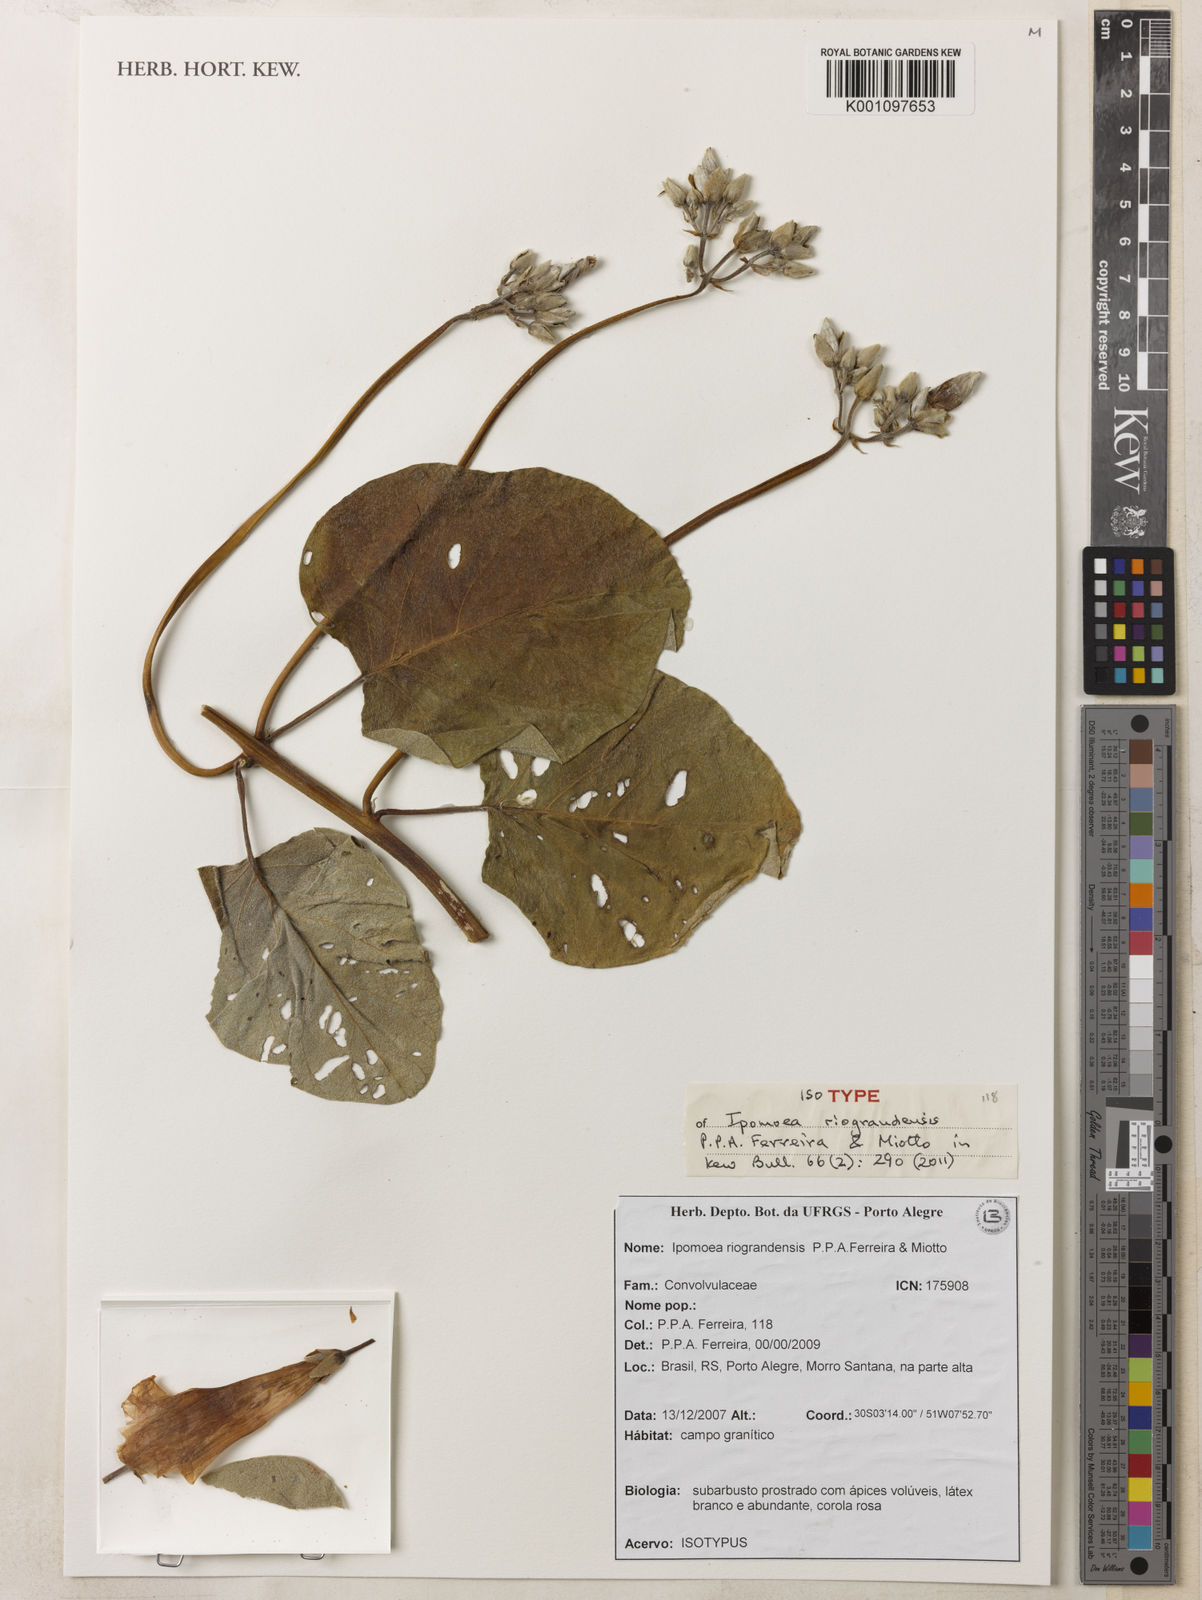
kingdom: Plantae
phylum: Tracheophyta
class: Magnoliopsida
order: Solanales
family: Convolvulaceae
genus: Ipomoea
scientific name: Ipomoea megapotamica
